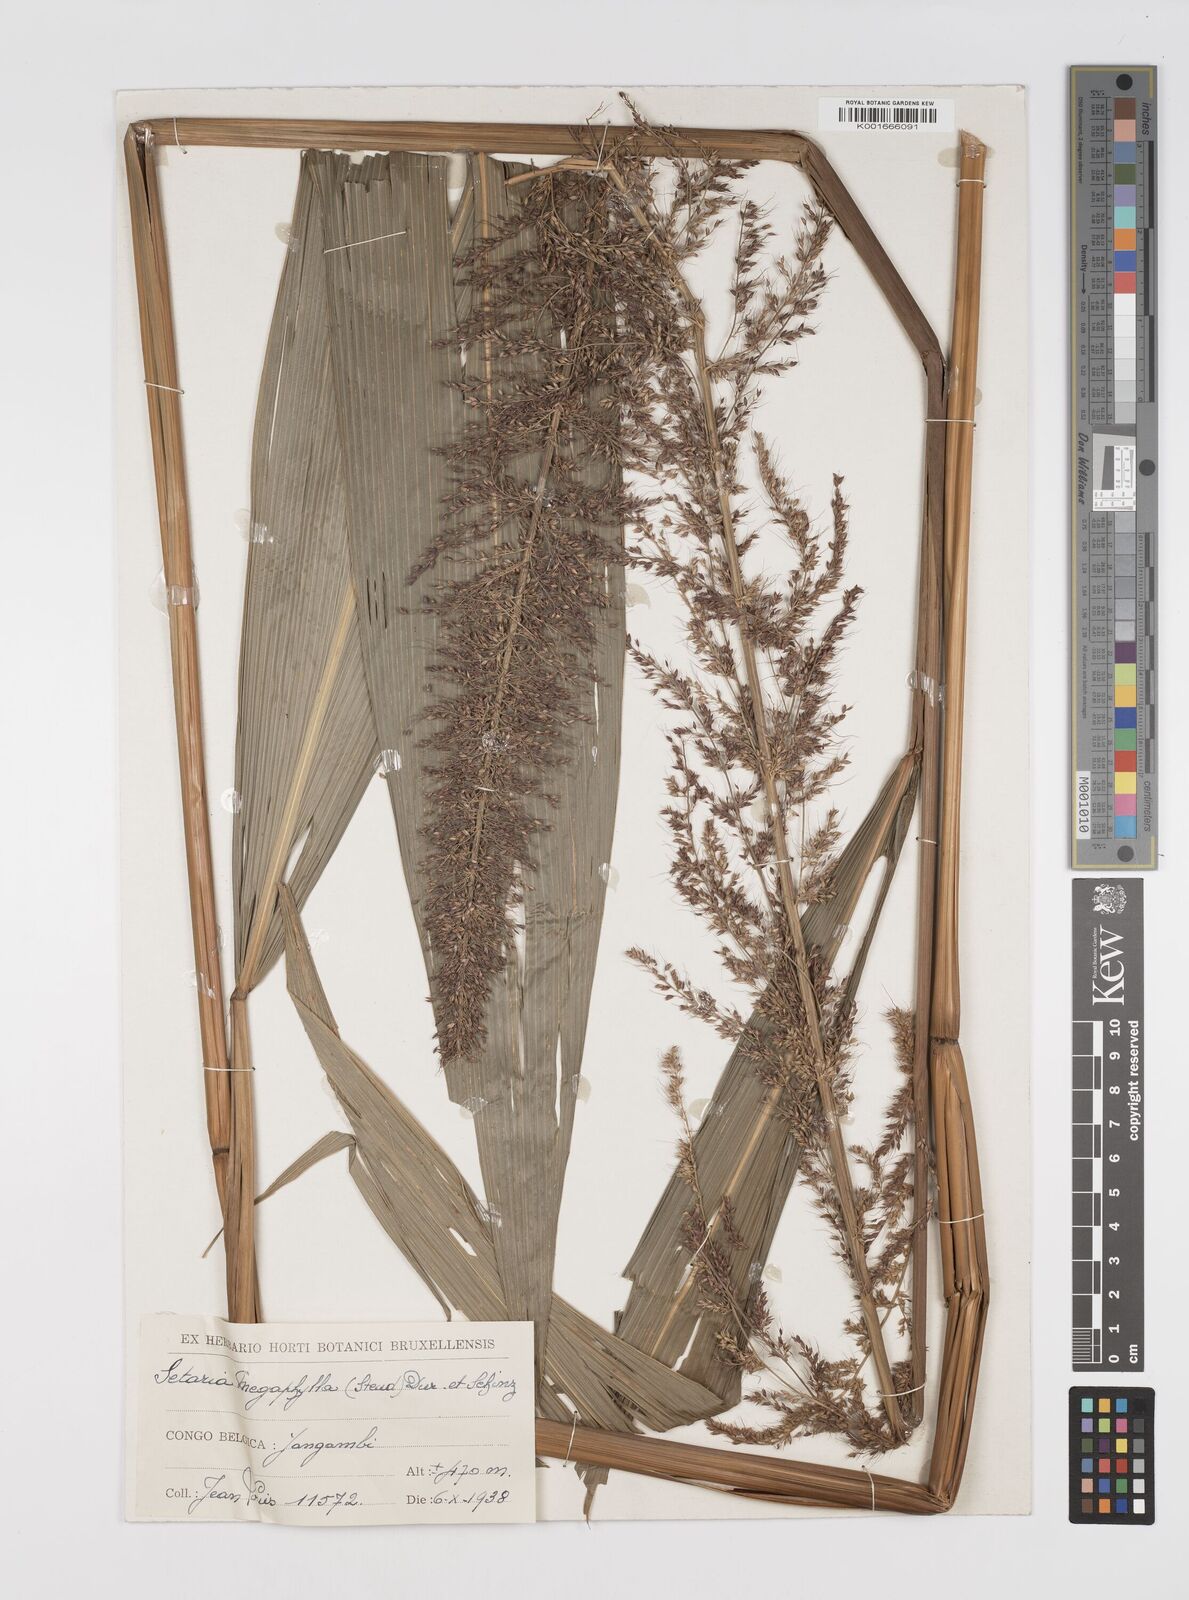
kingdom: Plantae
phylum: Tracheophyta
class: Liliopsida
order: Poales
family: Poaceae
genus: Setaria
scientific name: Setaria megaphylla
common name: Bigleaf bristlegrass
